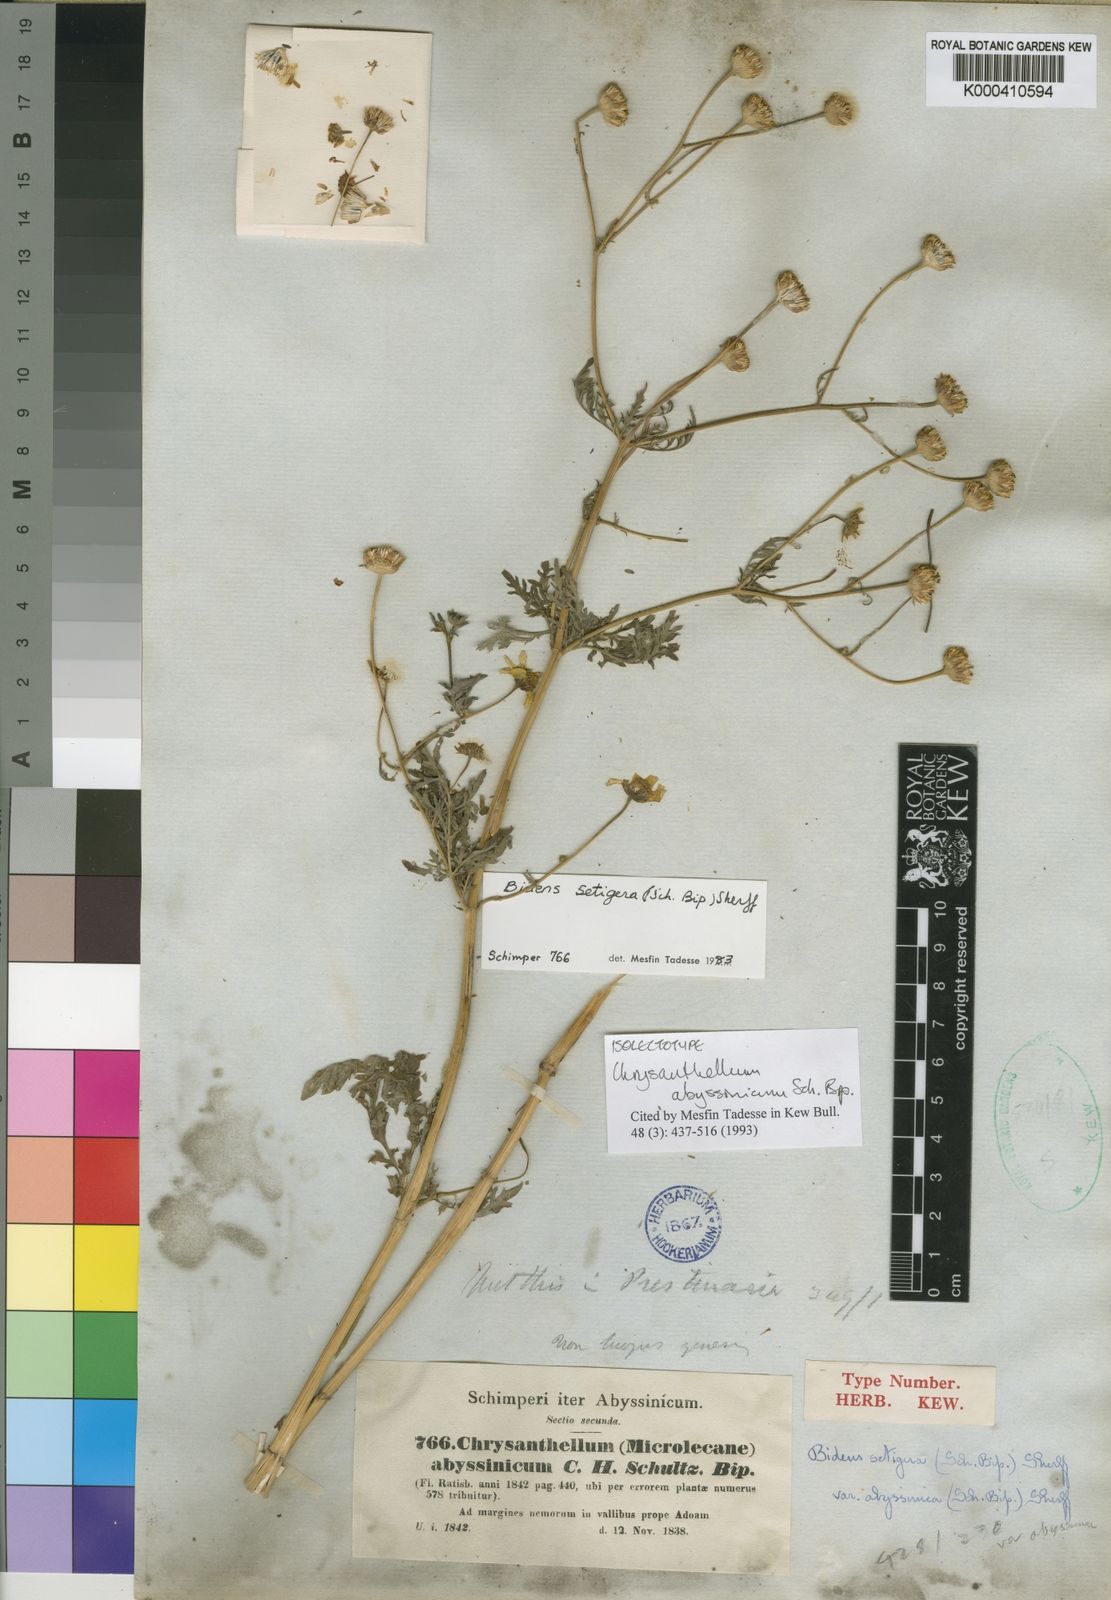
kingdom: Plantae
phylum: Tracheophyta
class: Magnoliopsida
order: Asterales
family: Asteraceae
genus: Bidens
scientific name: Bidens setigera
